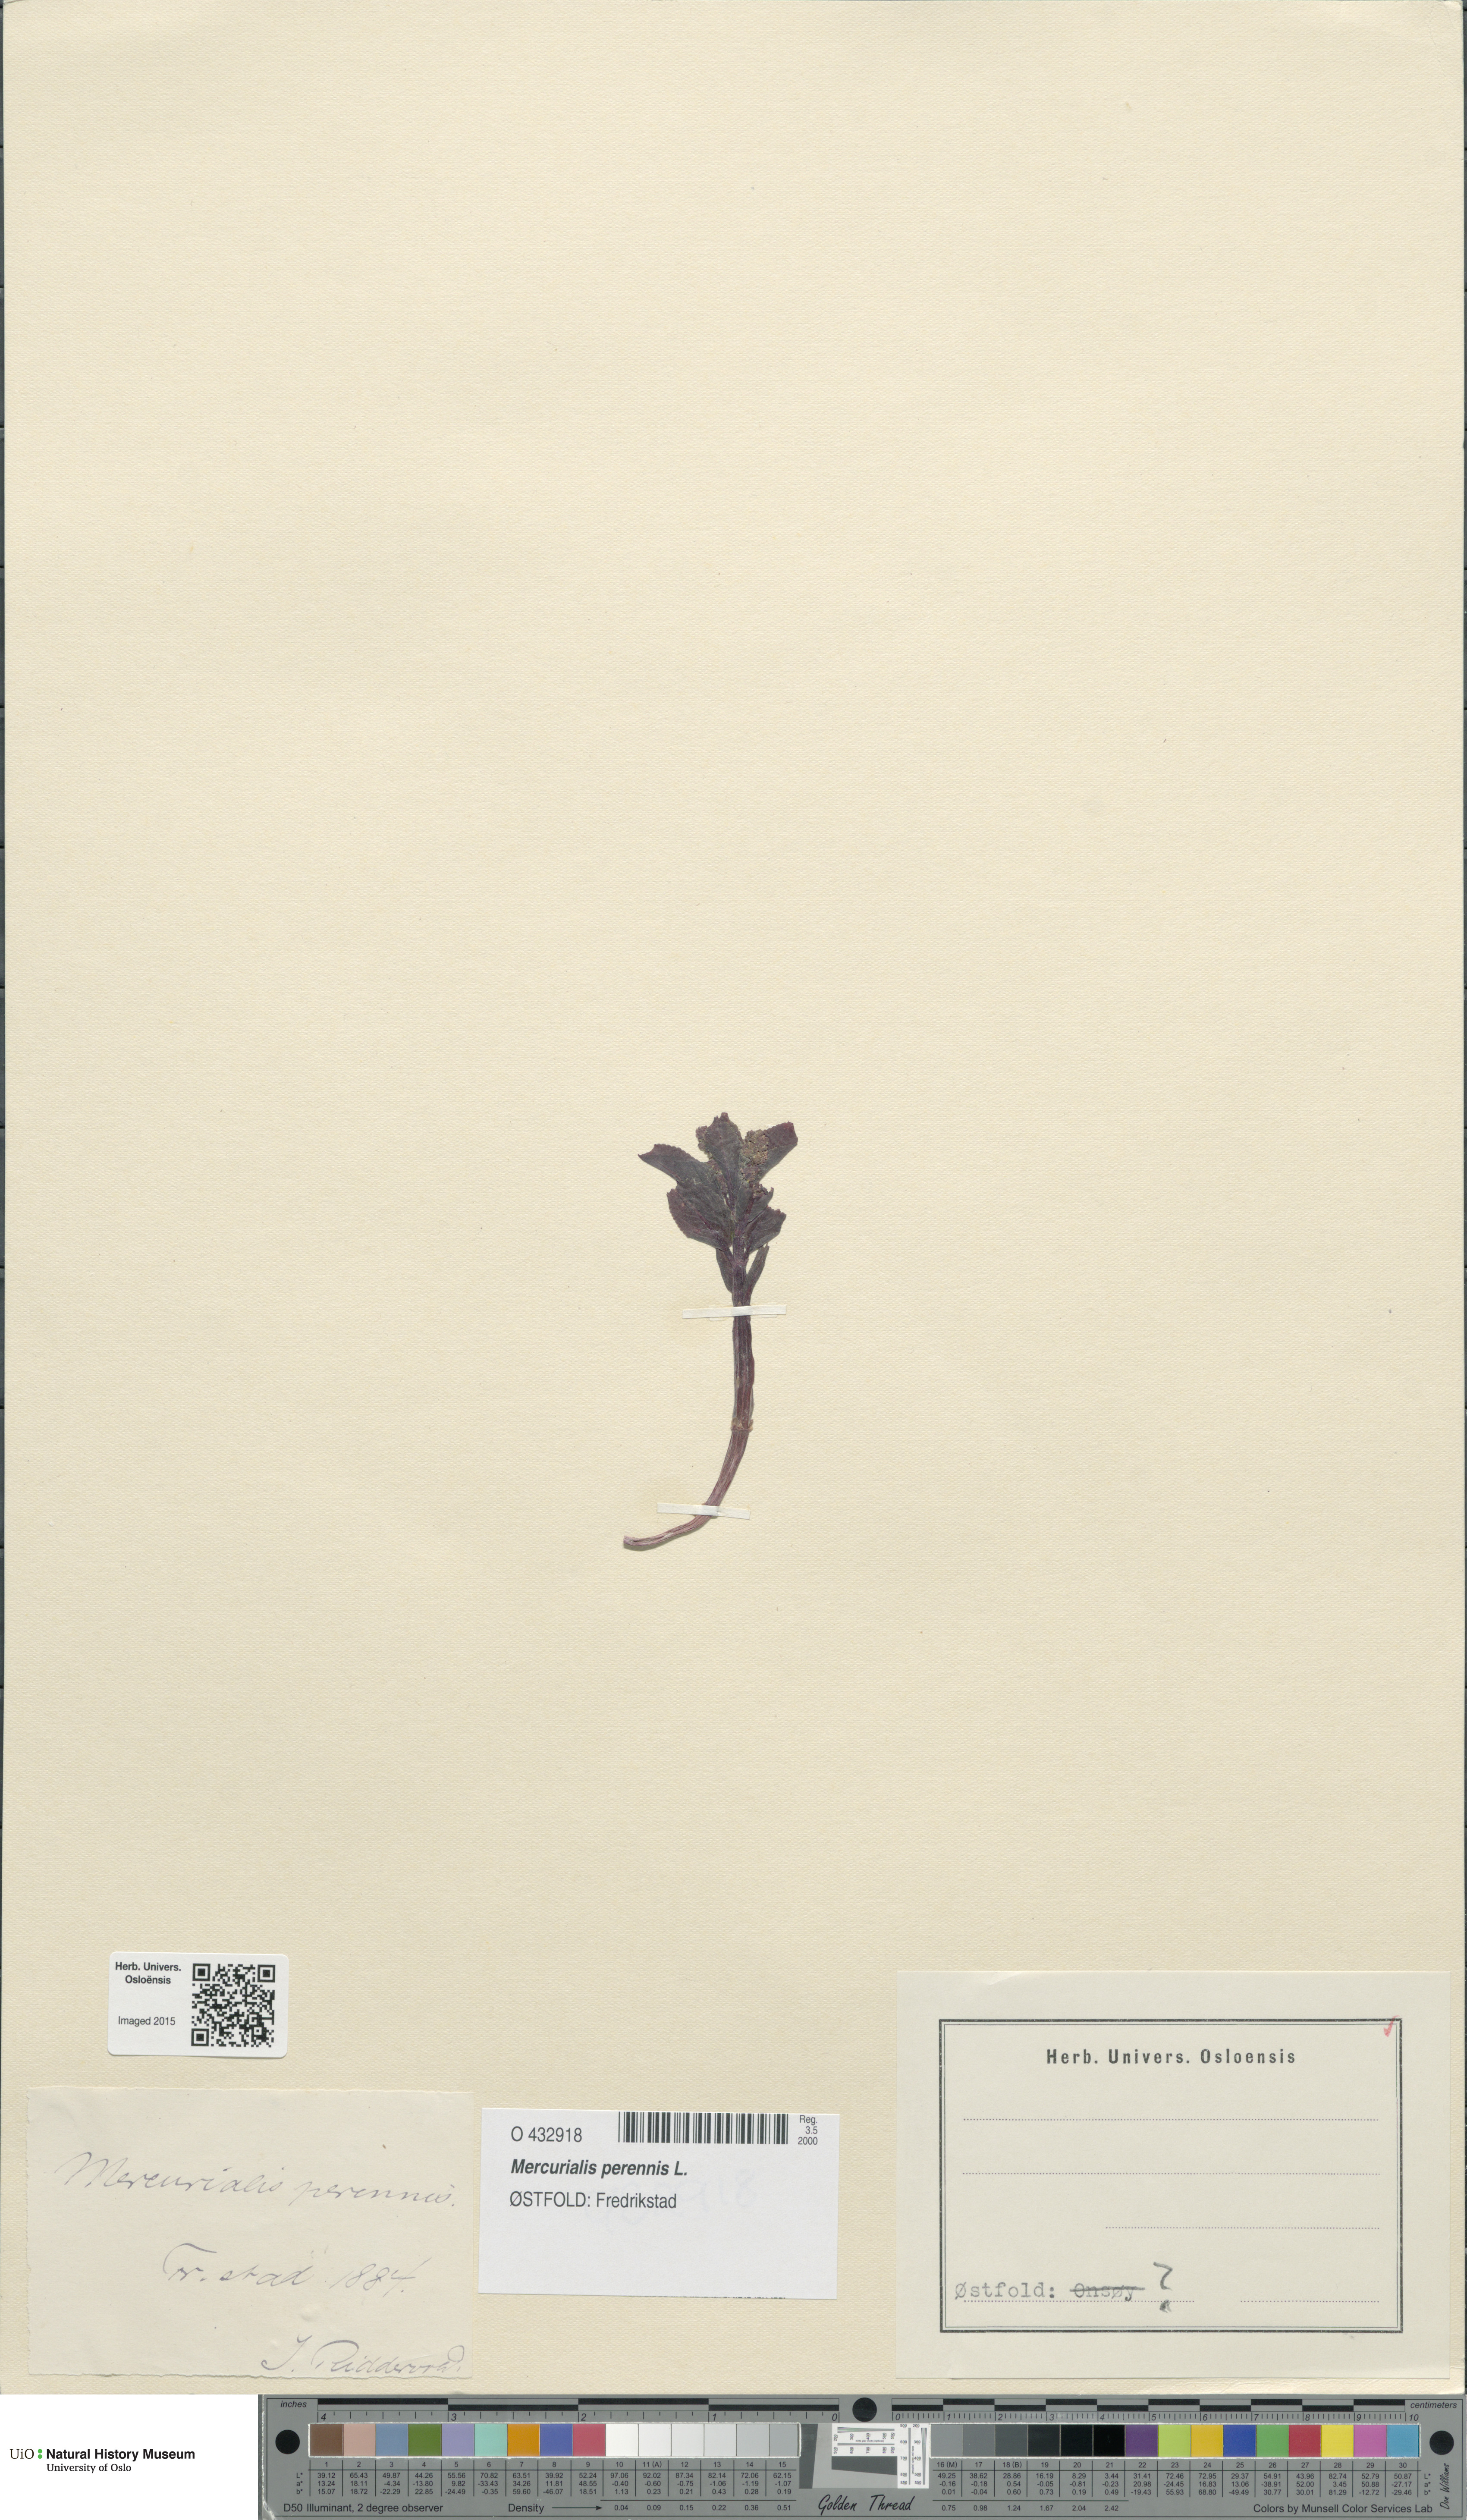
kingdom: Plantae
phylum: Tracheophyta
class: Magnoliopsida
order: Malpighiales
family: Euphorbiaceae
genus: Mercurialis
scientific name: Mercurialis perennis
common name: Dog mercury
